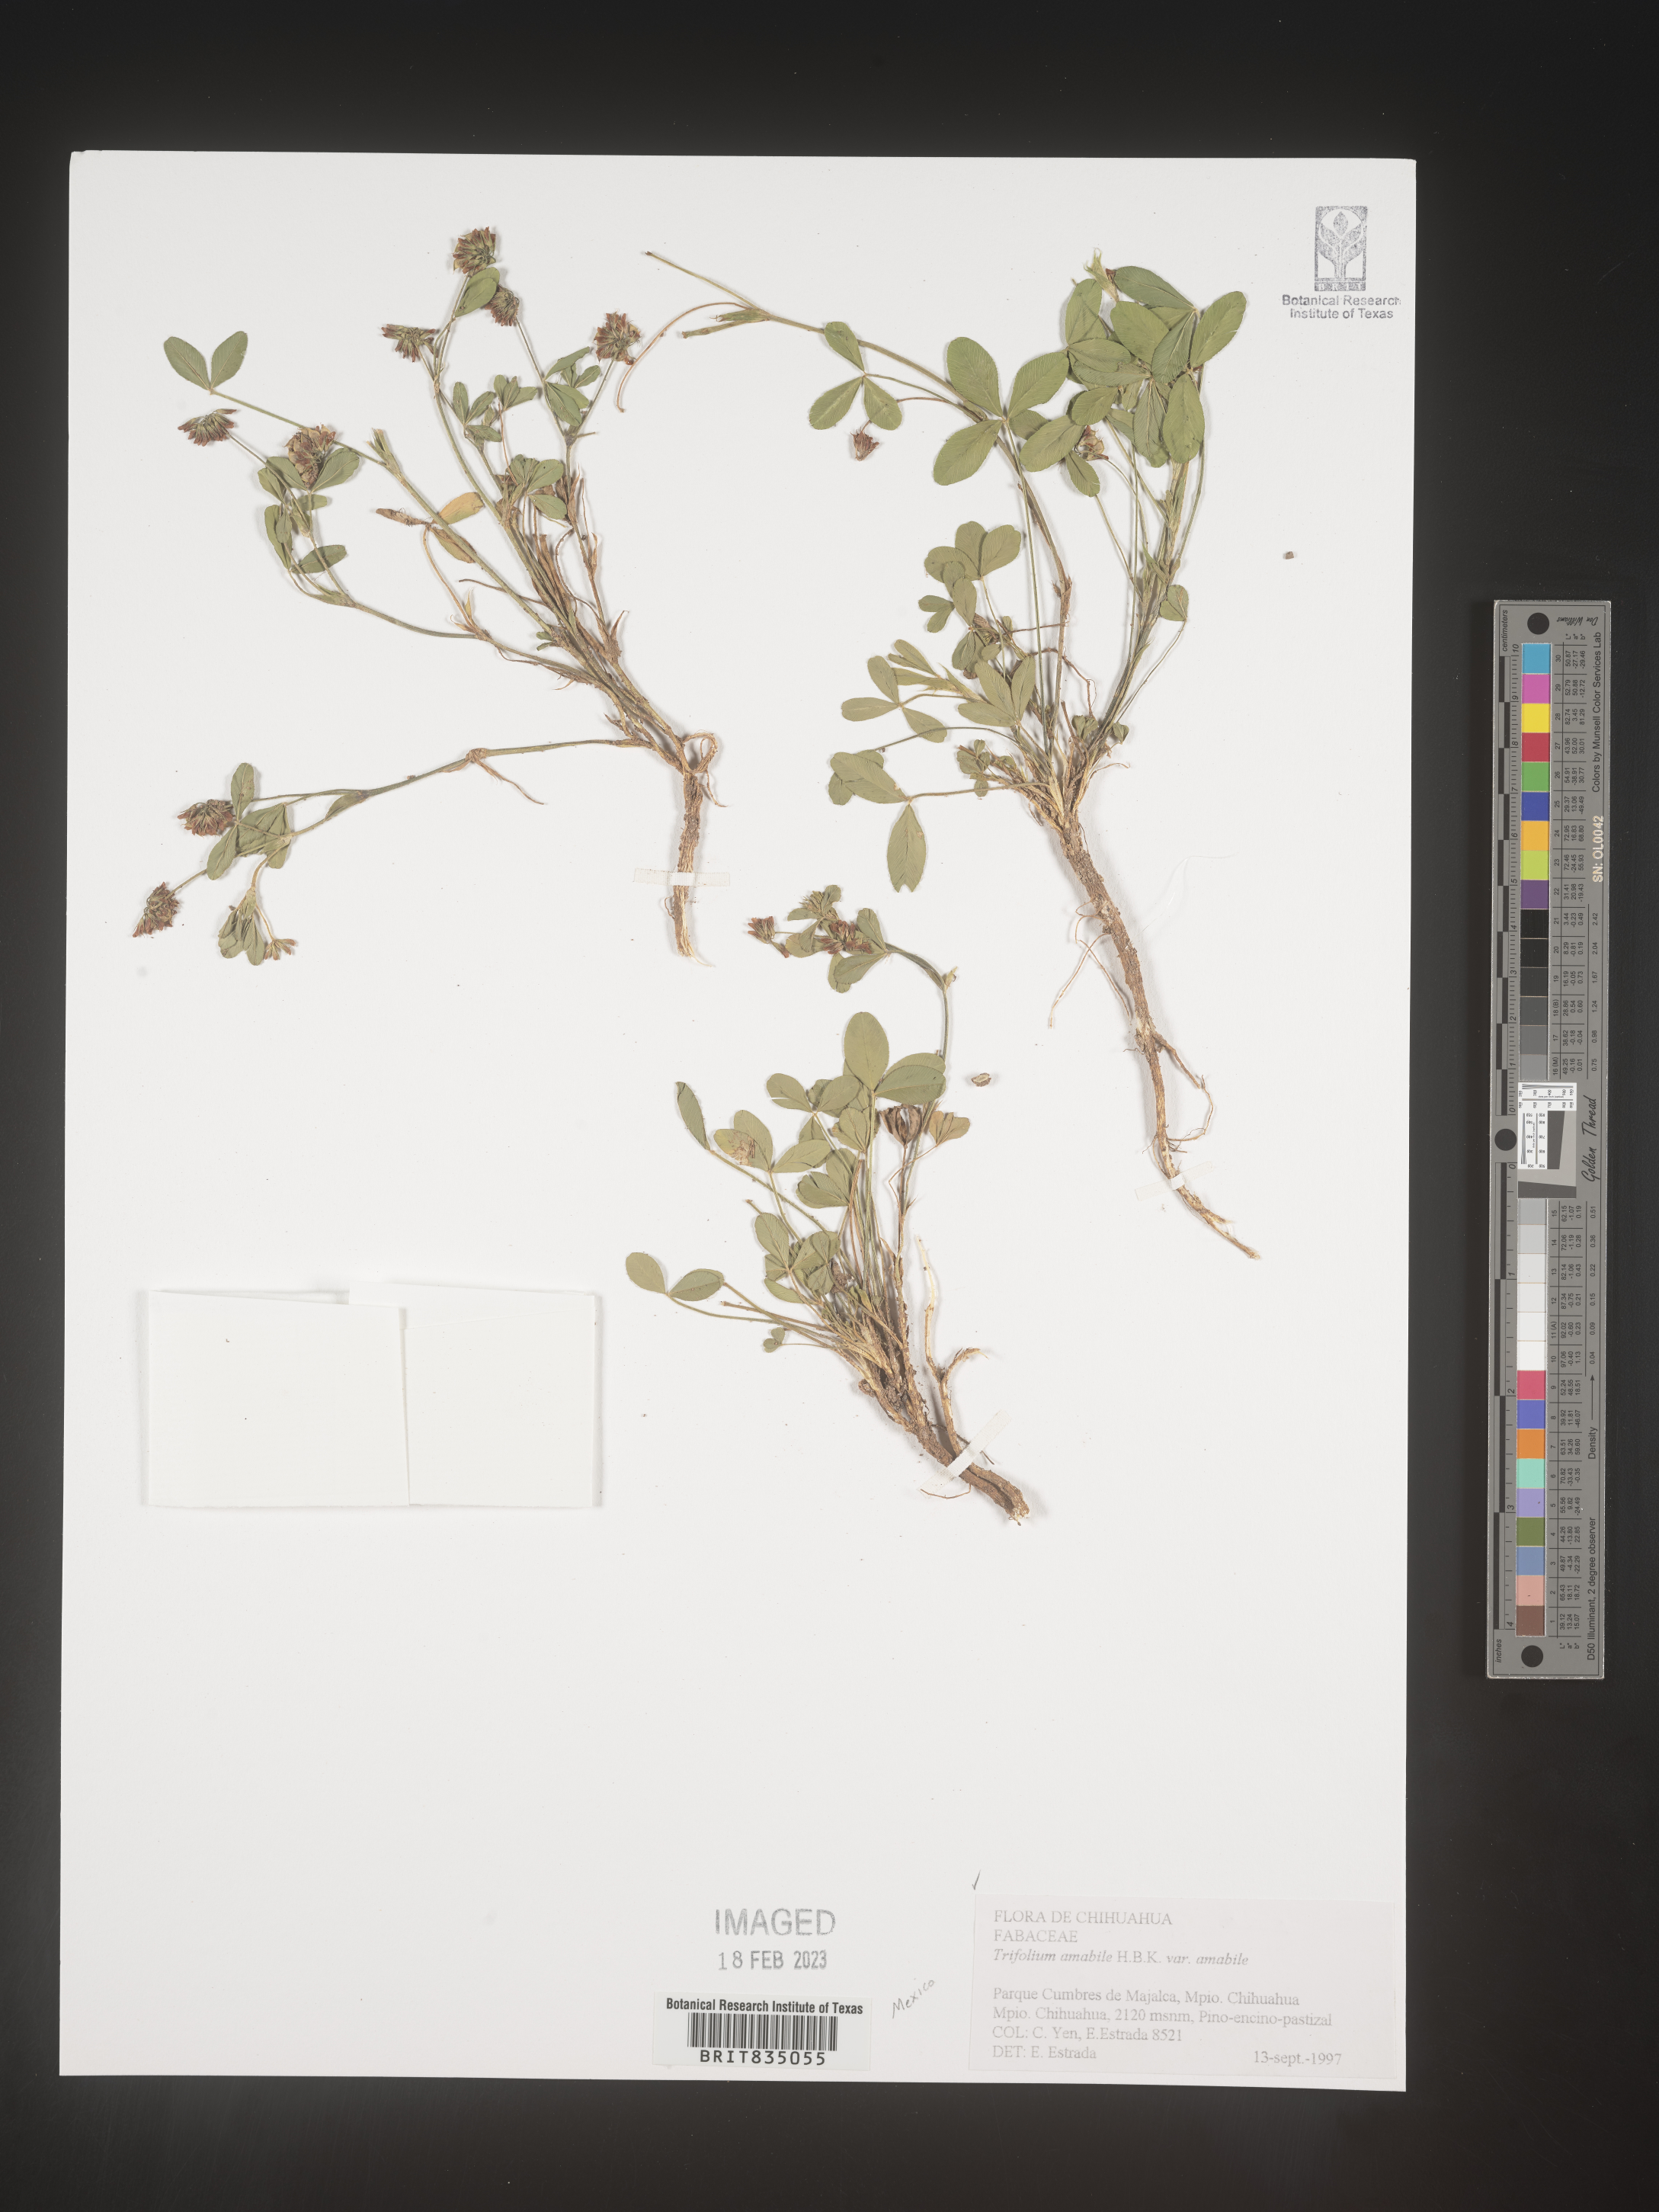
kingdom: Plantae
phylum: Tracheophyta
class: Magnoliopsida
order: Fabales
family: Fabaceae
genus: Trifolium
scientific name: Trifolium
